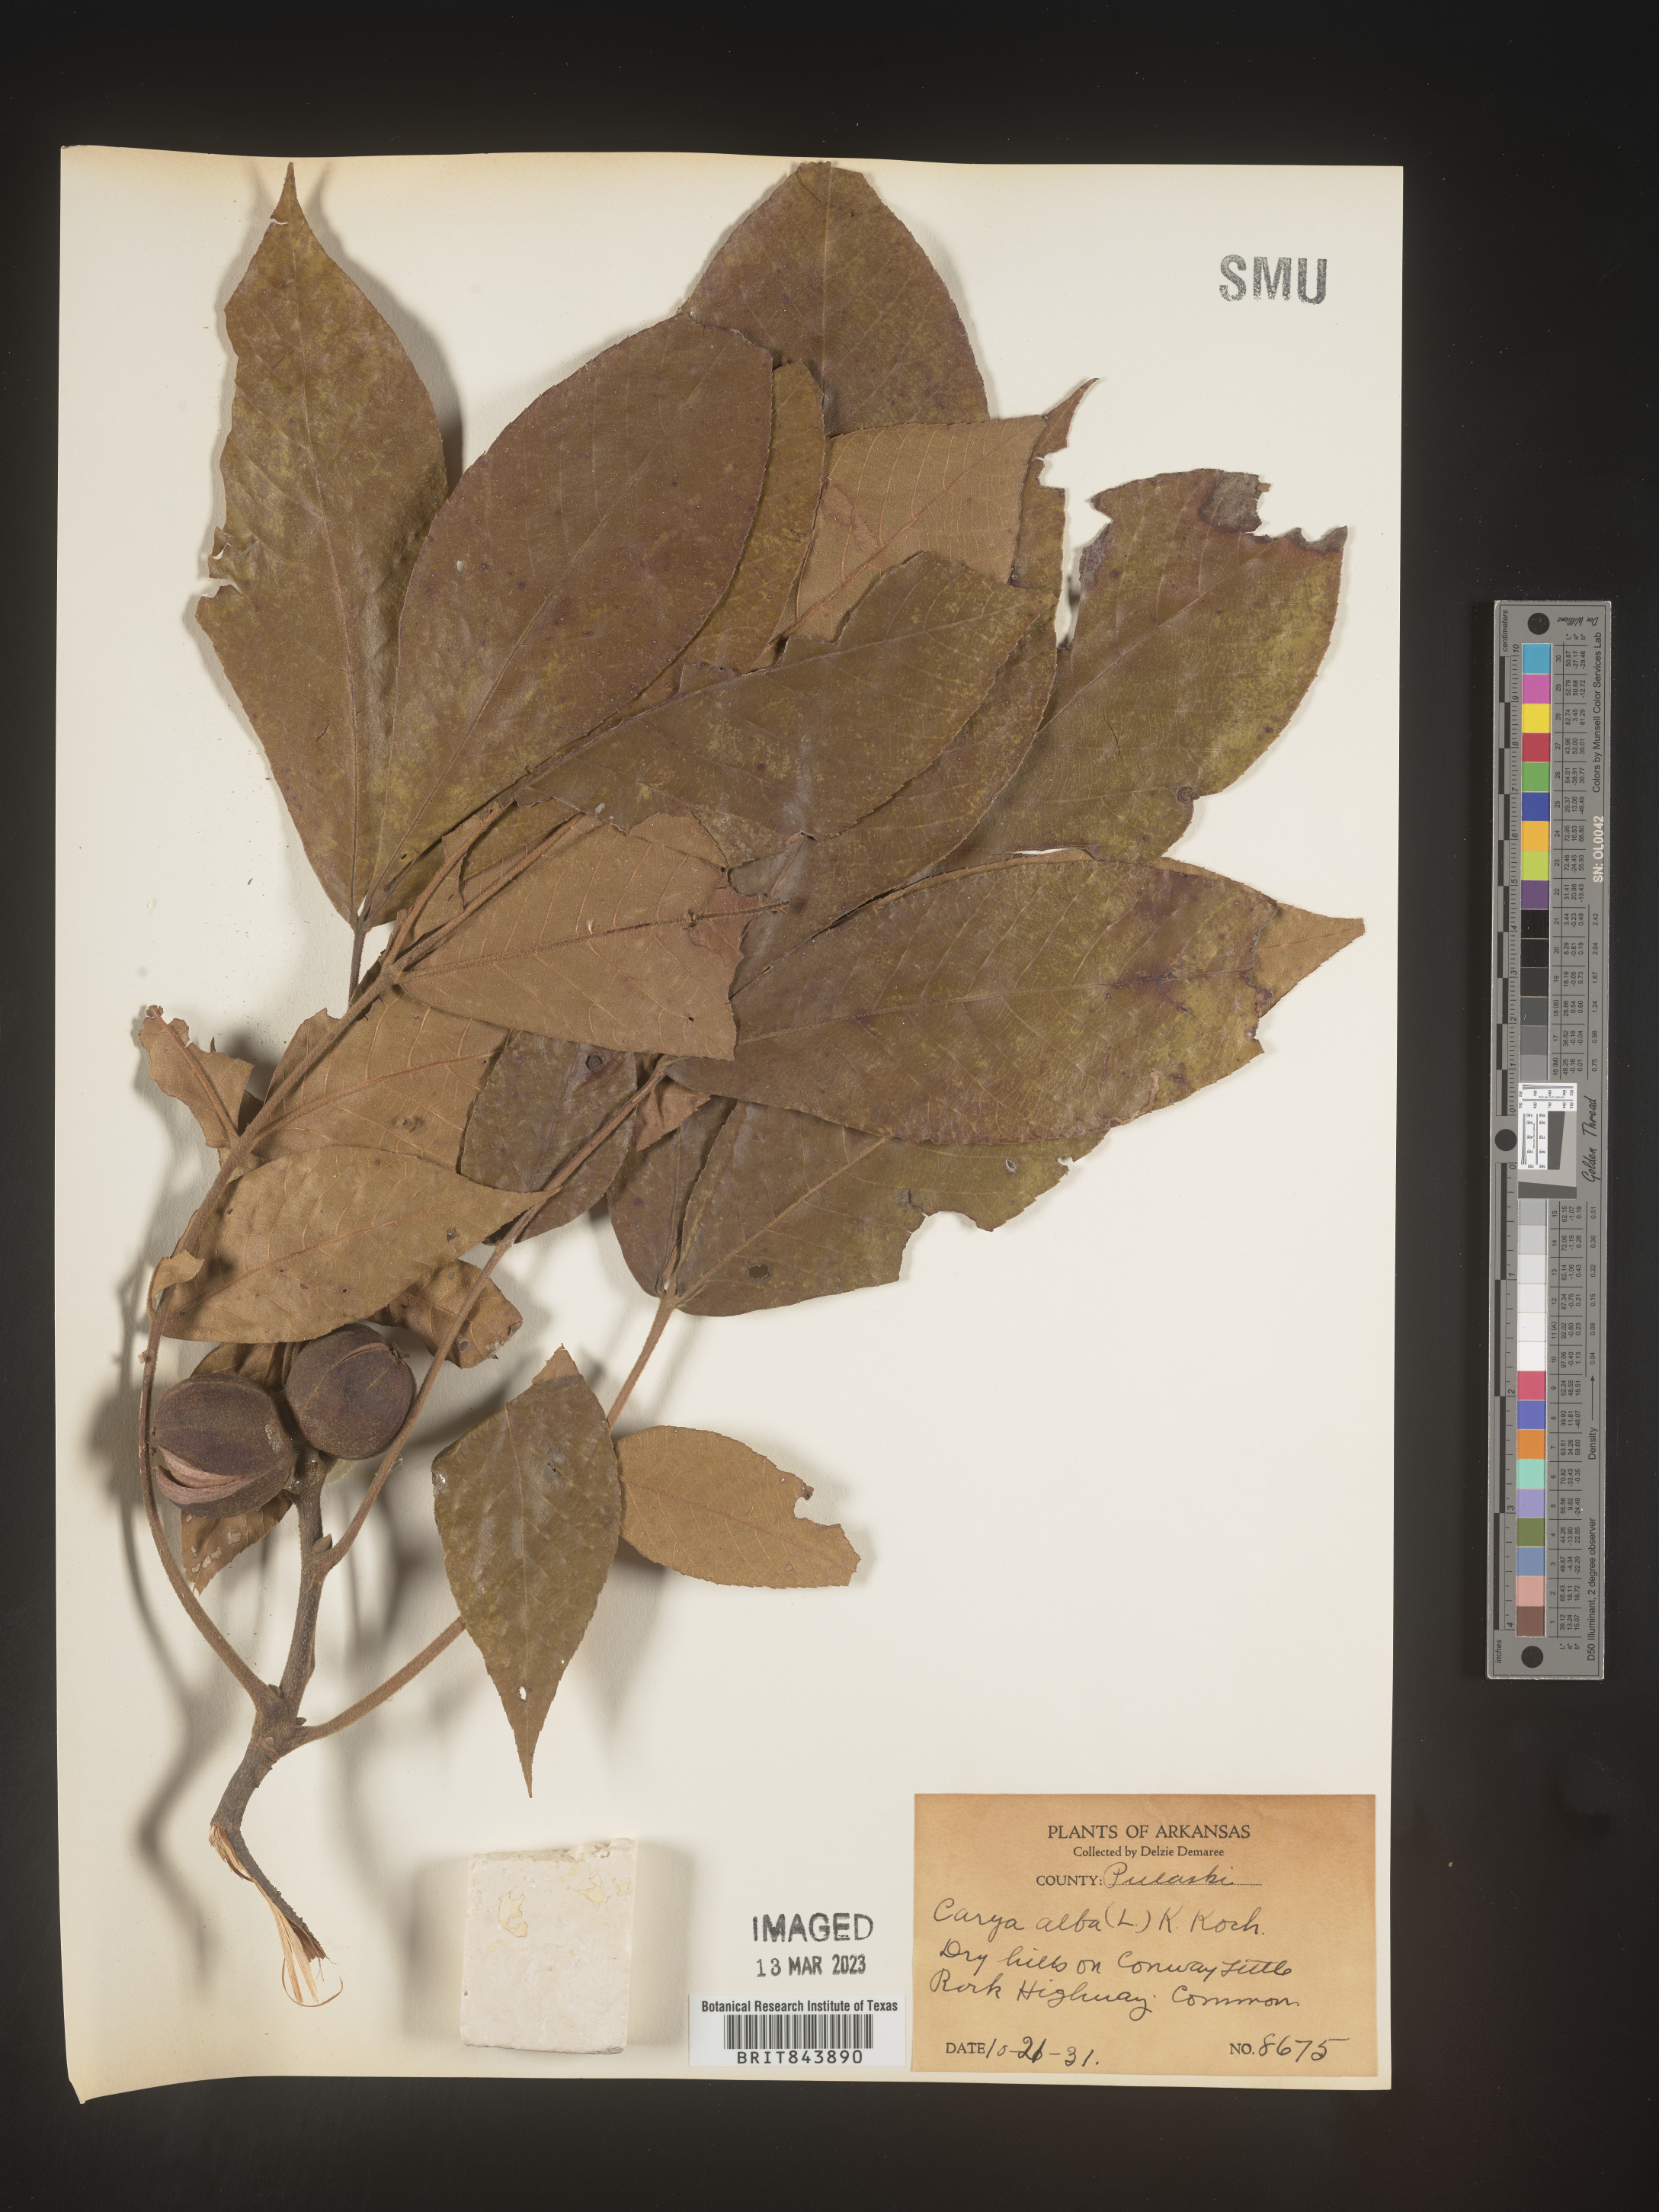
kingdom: Plantae
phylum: Tracheophyta
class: Magnoliopsida
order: Fagales
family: Juglandaceae
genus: Carya
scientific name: Carya alba
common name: Mockernut hickory
